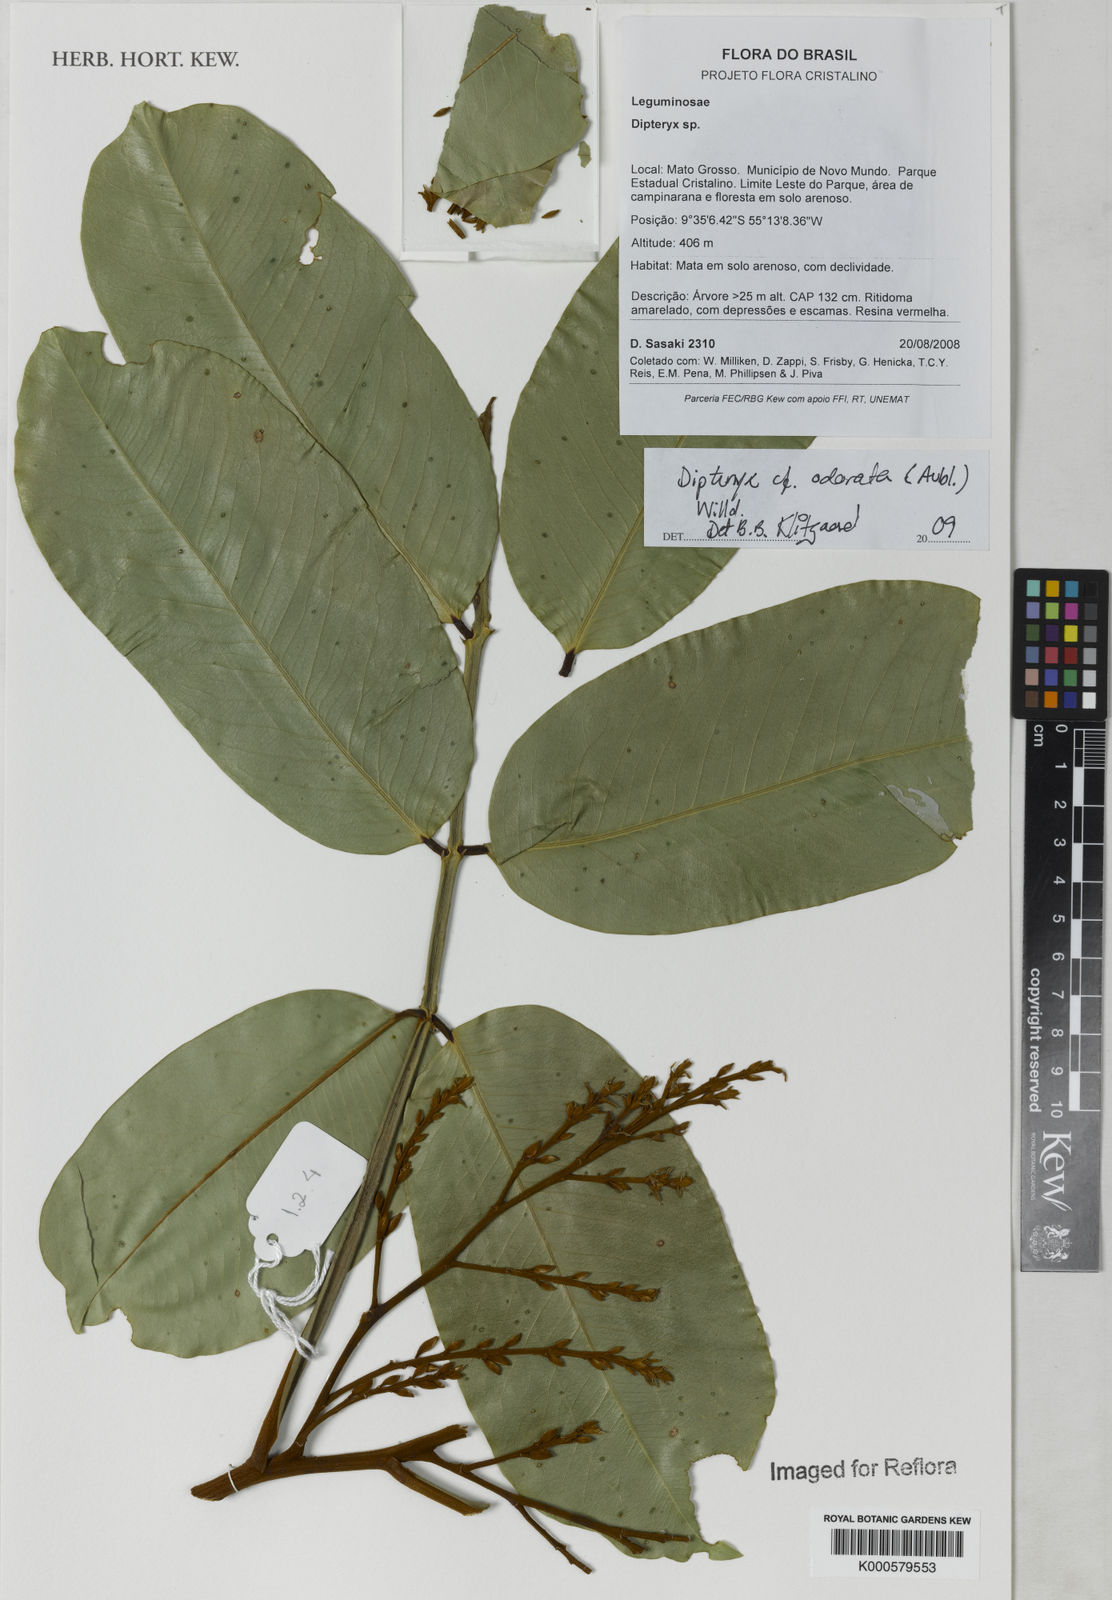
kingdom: Plantae
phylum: Tracheophyta
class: Magnoliopsida
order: Fabales
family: Fabaceae
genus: Dipteryx
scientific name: Dipteryx
